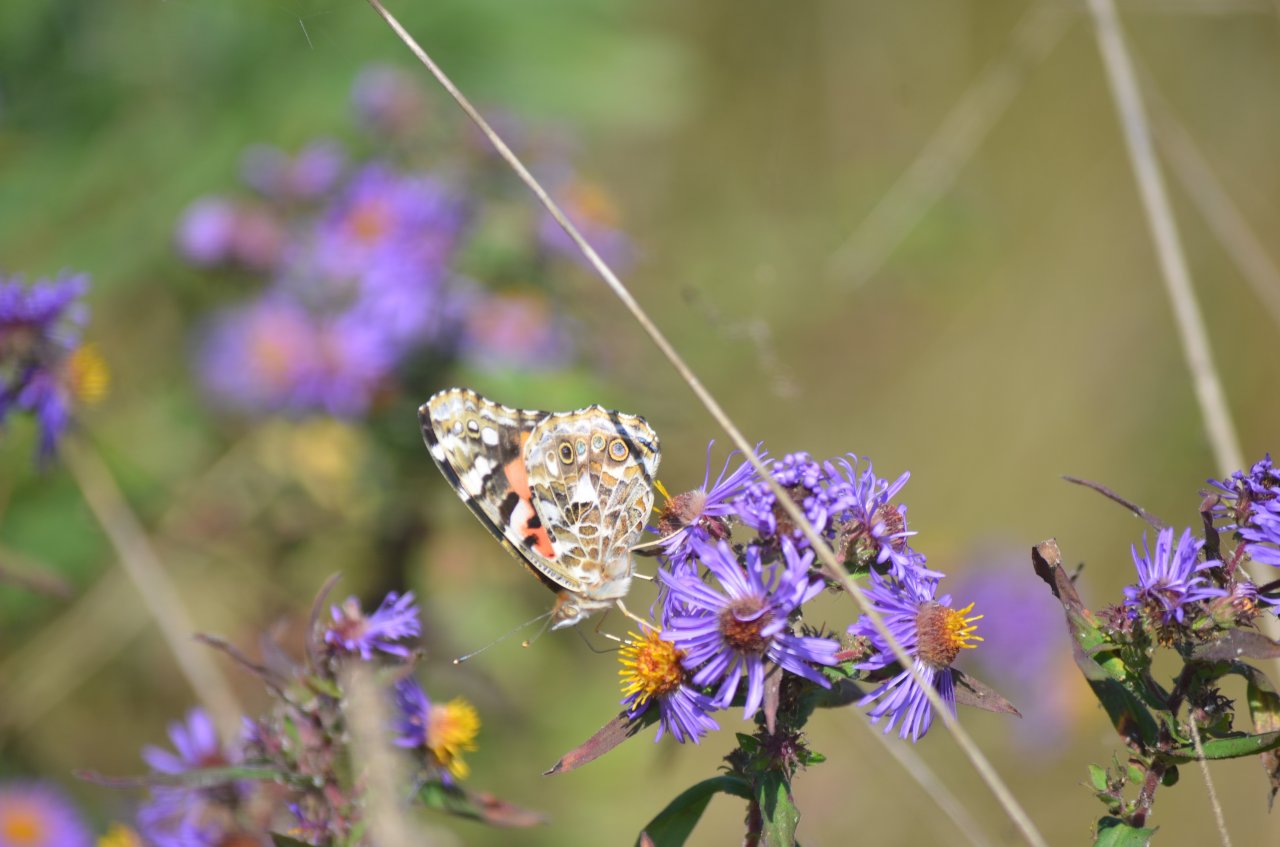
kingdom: Animalia
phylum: Arthropoda
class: Insecta
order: Lepidoptera
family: Nymphalidae
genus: Vanessa
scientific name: Vanessa cardui
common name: Painted Lady
